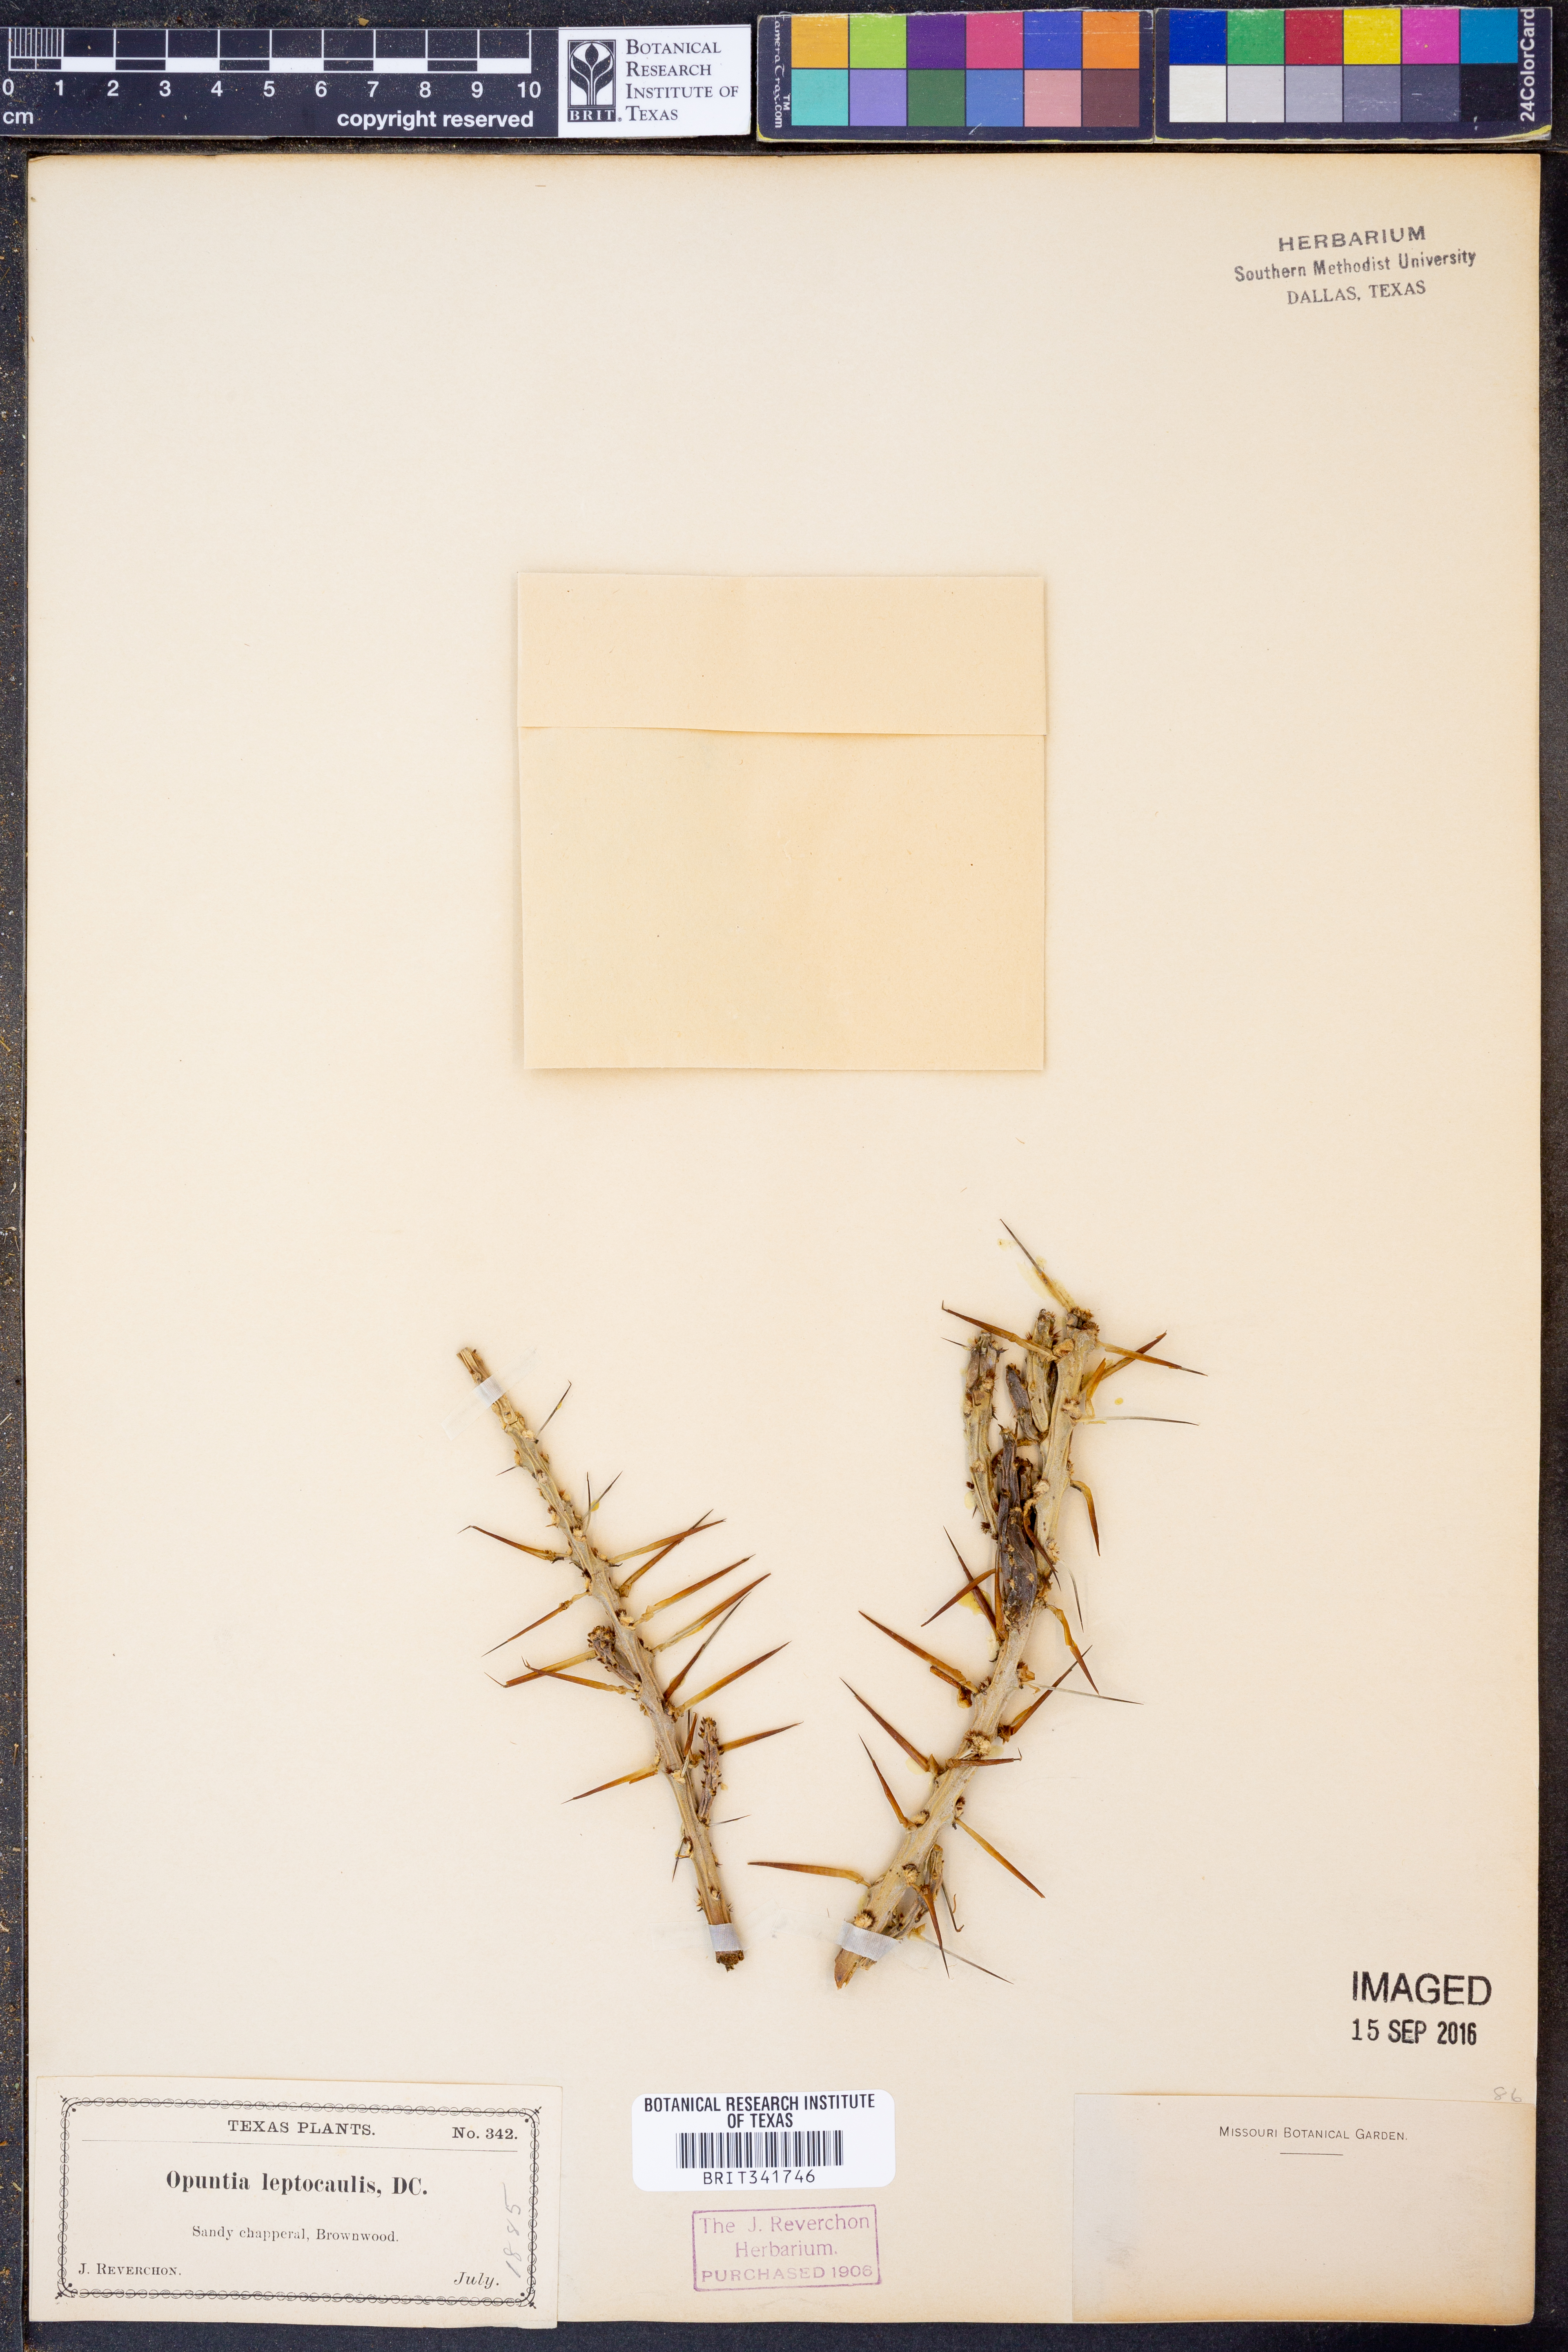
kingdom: Plantae
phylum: Tracheophyta
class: Magnoliopsida
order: Caryophyllales
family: Cactaceae
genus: Cylindropuntia
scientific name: Cylindropuntia leptocaulis
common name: Christmas cactus
